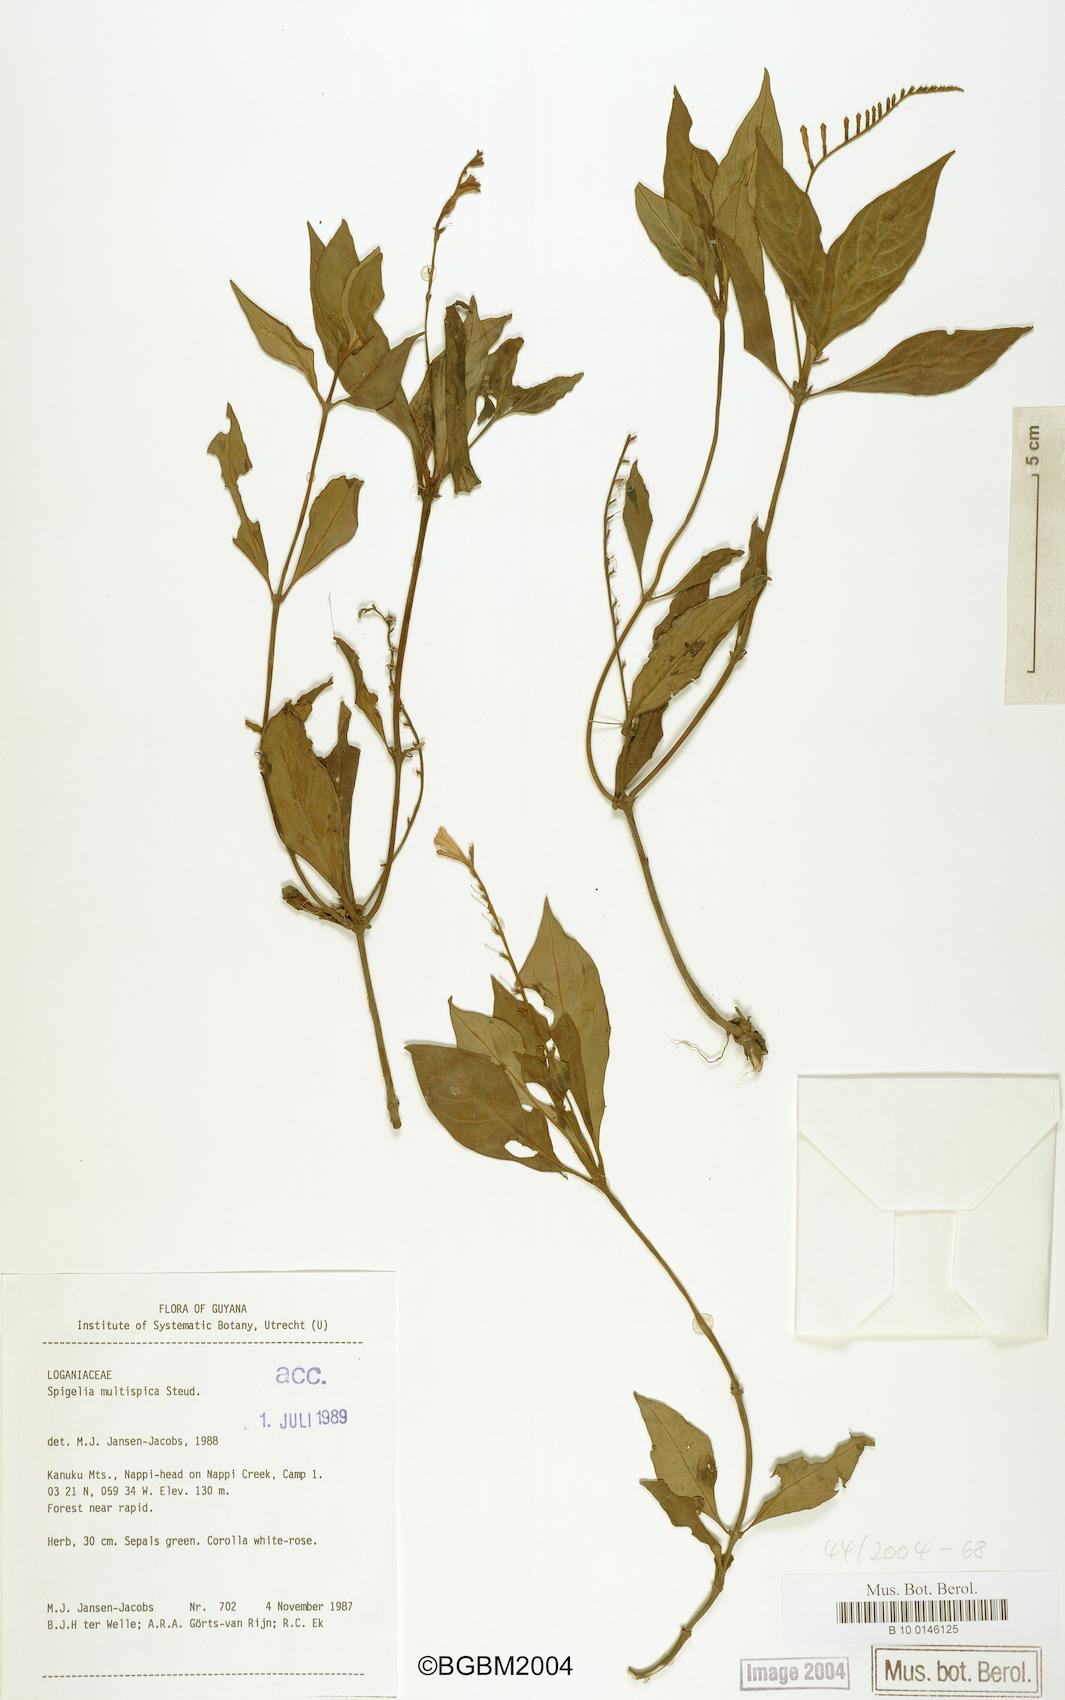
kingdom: Plantae
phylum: Tracheophyta
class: Magnoliopsida
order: Gentianales
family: Loganiaceae
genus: Spigelia
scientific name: Spigelia hamellioides
